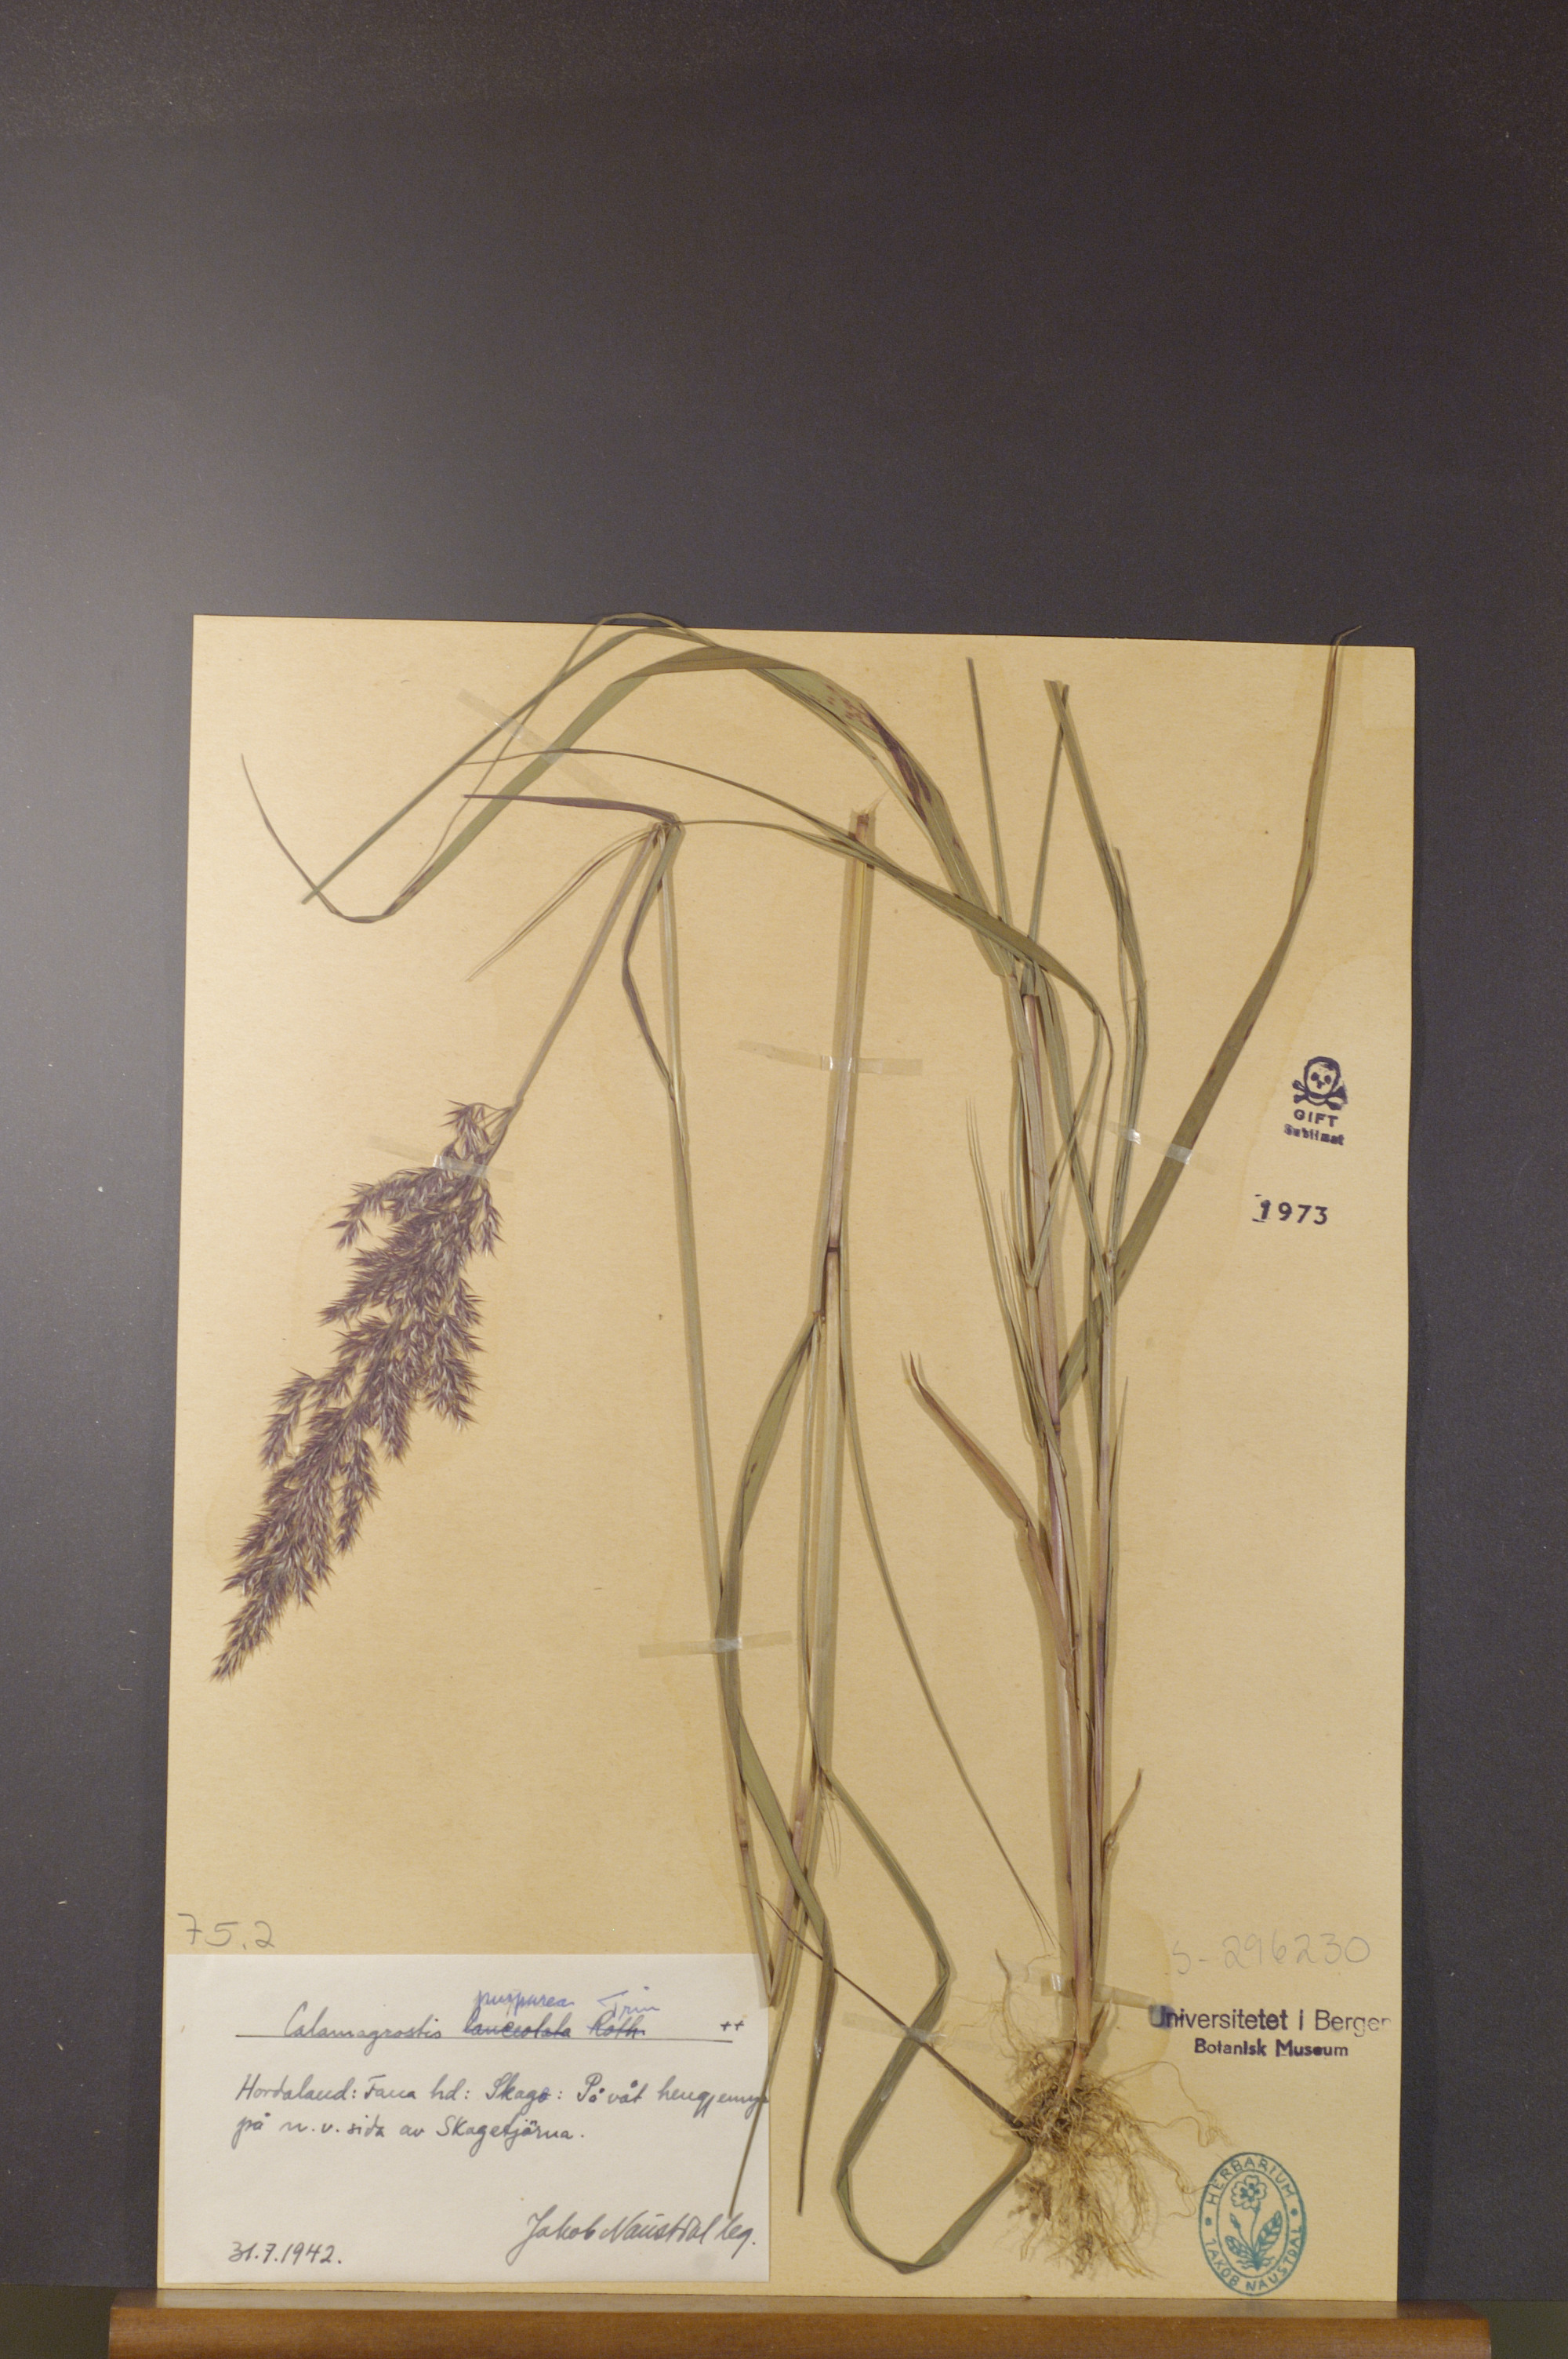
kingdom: Plantae
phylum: Tracheophyta
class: Liliopsida
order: Poales
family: Poaceae
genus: Calamagrostis
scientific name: Calamagrostis purpurea
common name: Scandinavian small-reed
